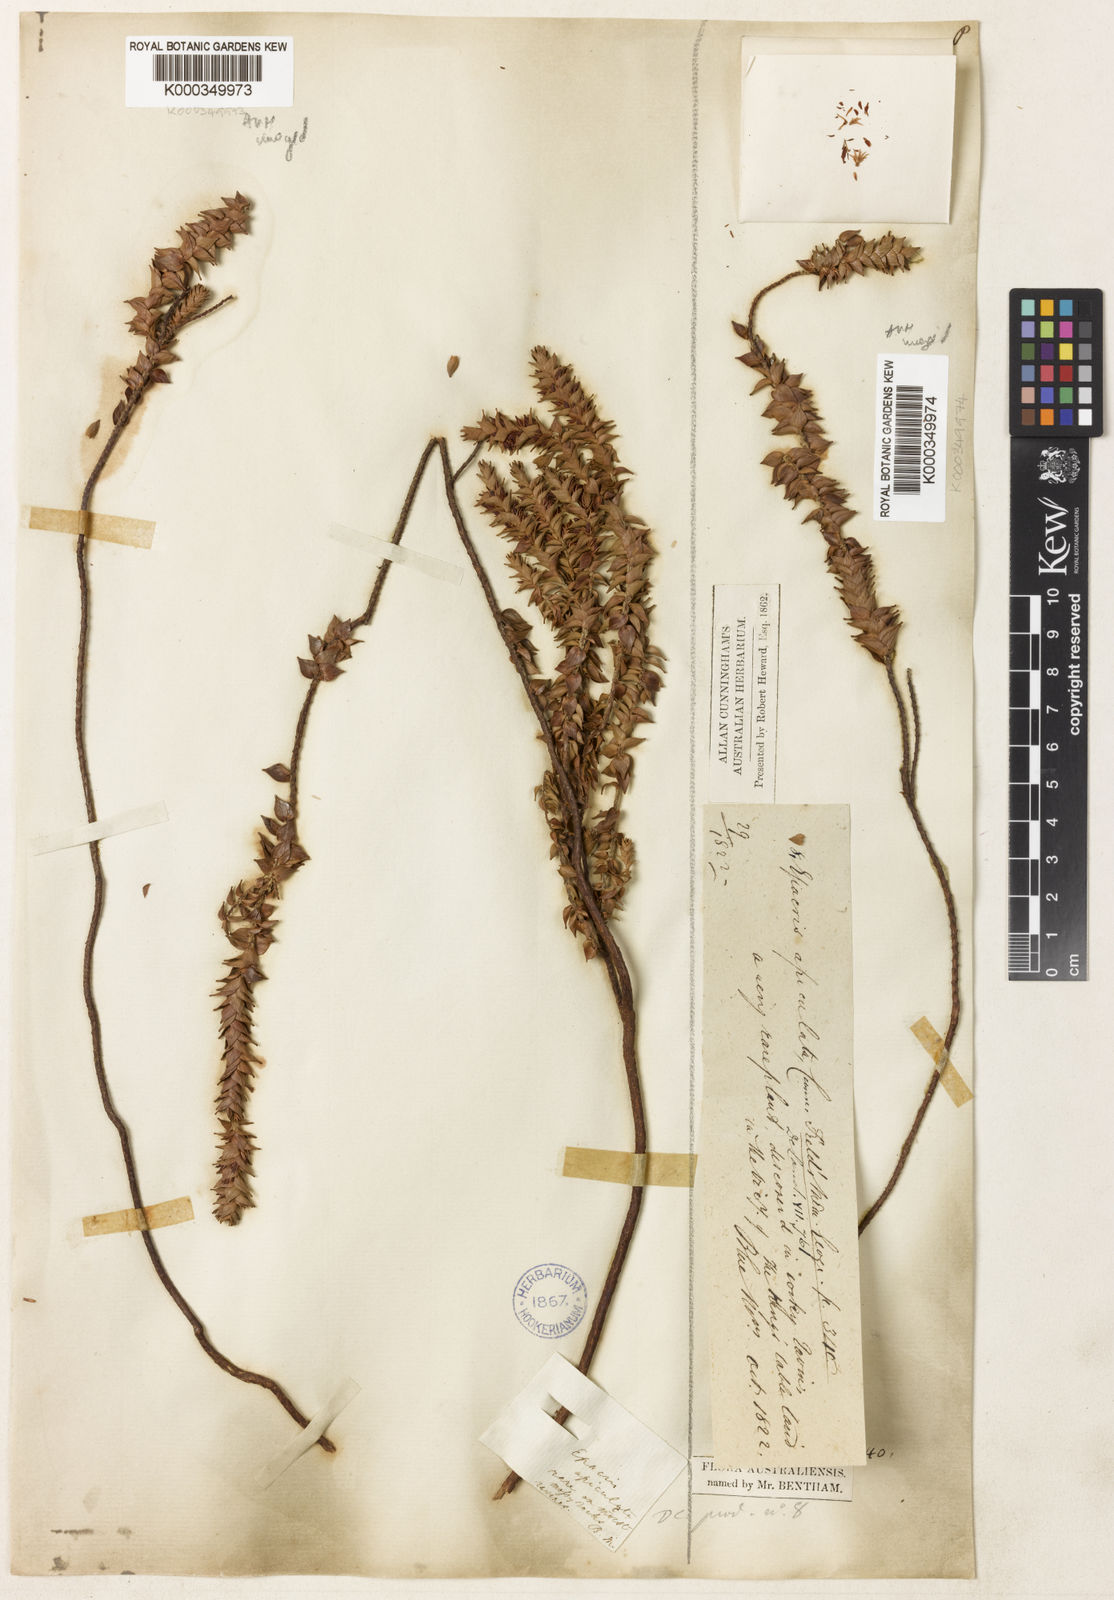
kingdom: Plantae
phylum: Tracheophyta
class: Magnoliopsida
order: Ericales
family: Ericaceae
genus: Prionotes
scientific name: Prionotes cerinthoides
